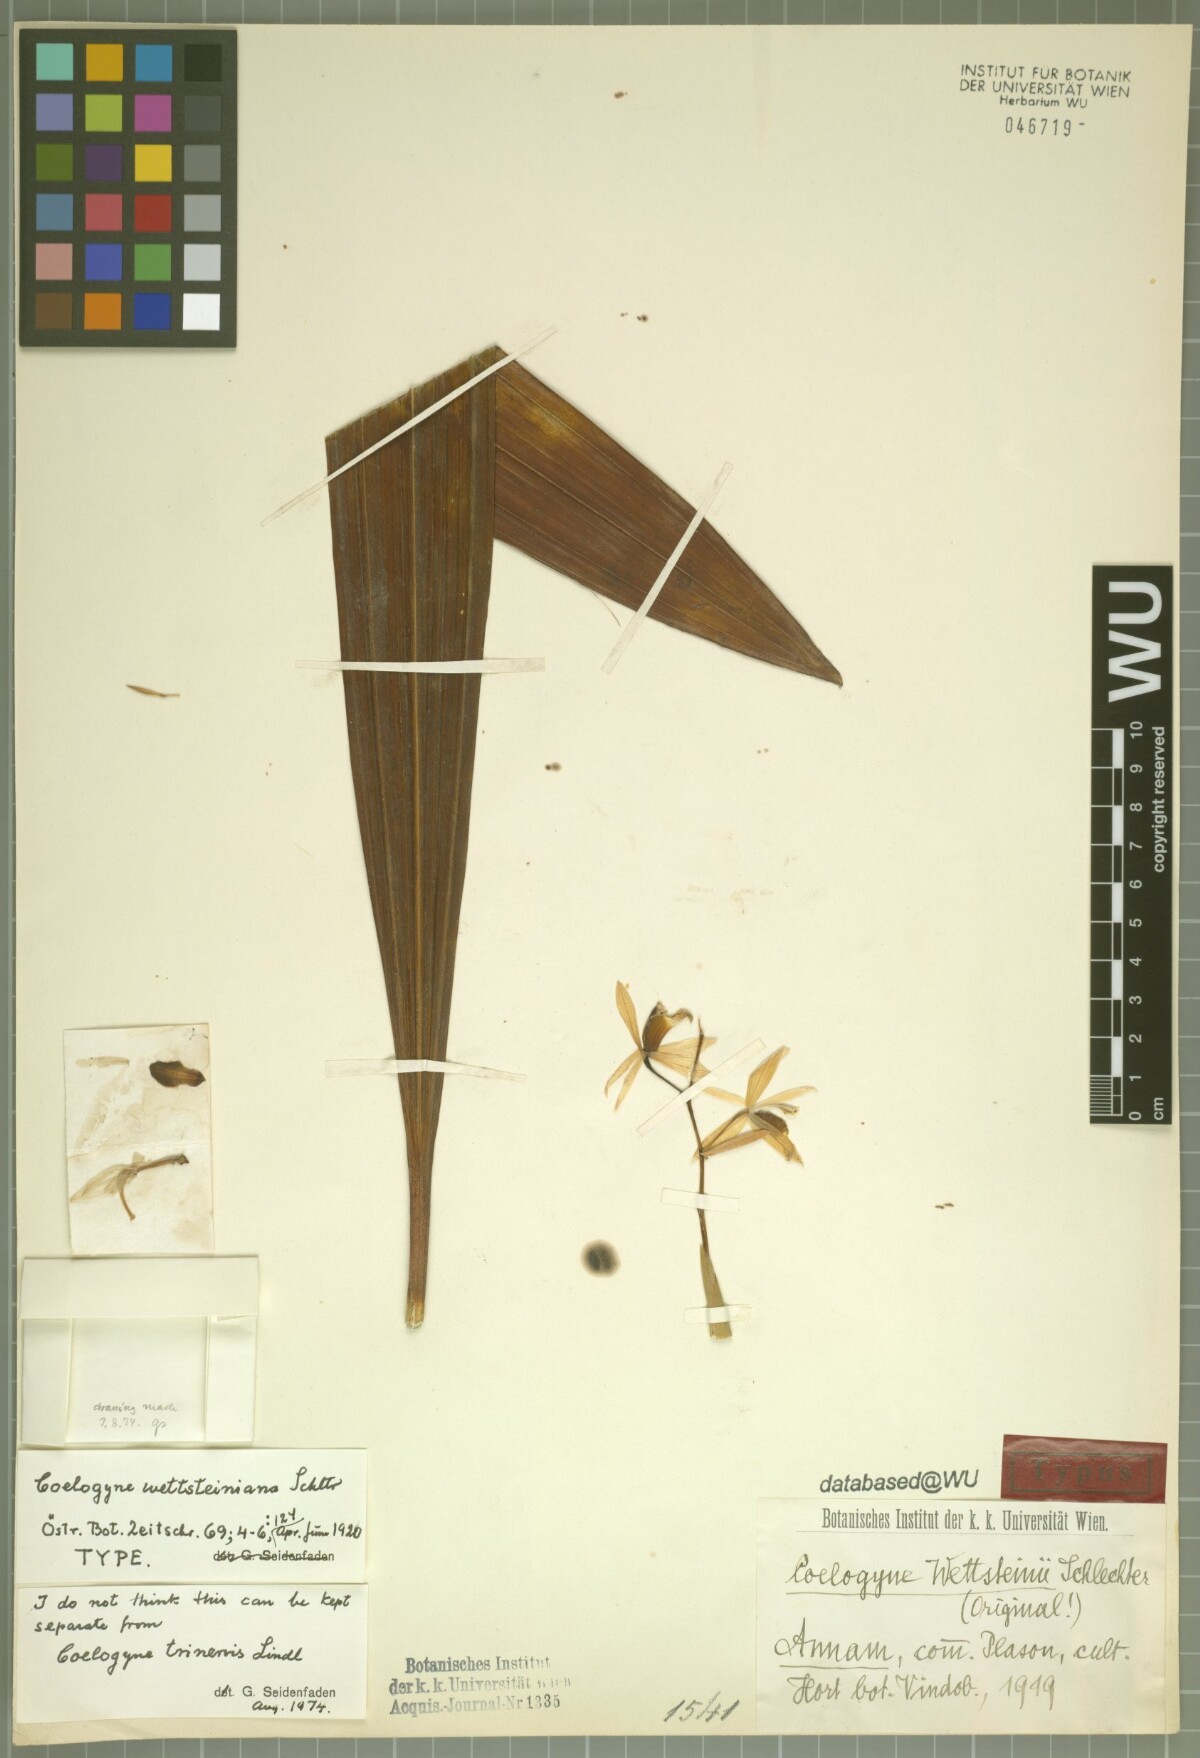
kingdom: Plantae
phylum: Tracheophyta
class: Liliopsida
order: Asparagales
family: Orchidaceae
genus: Coelogyne
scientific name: Coelogyne trinervis
